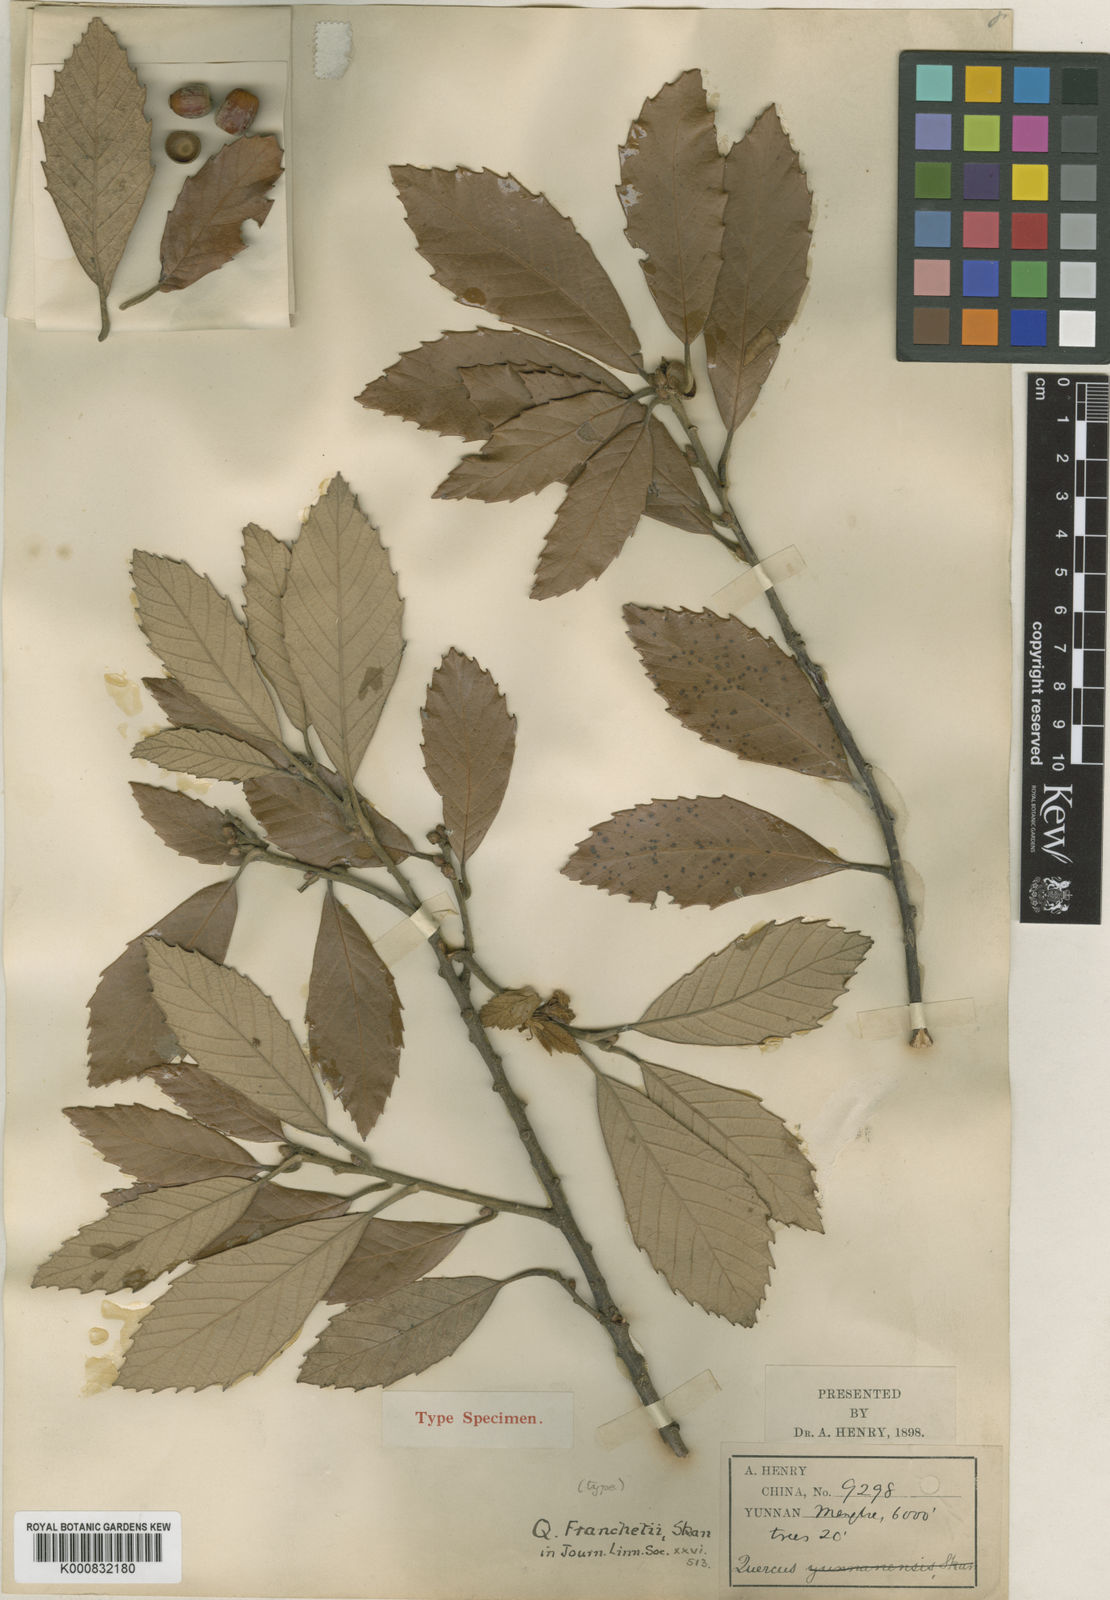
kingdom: Plantae
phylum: Tracheophyta
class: Magnoliopsida
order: Fagales
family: Fagaceae
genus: Quercus
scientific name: Quercus franchetii
